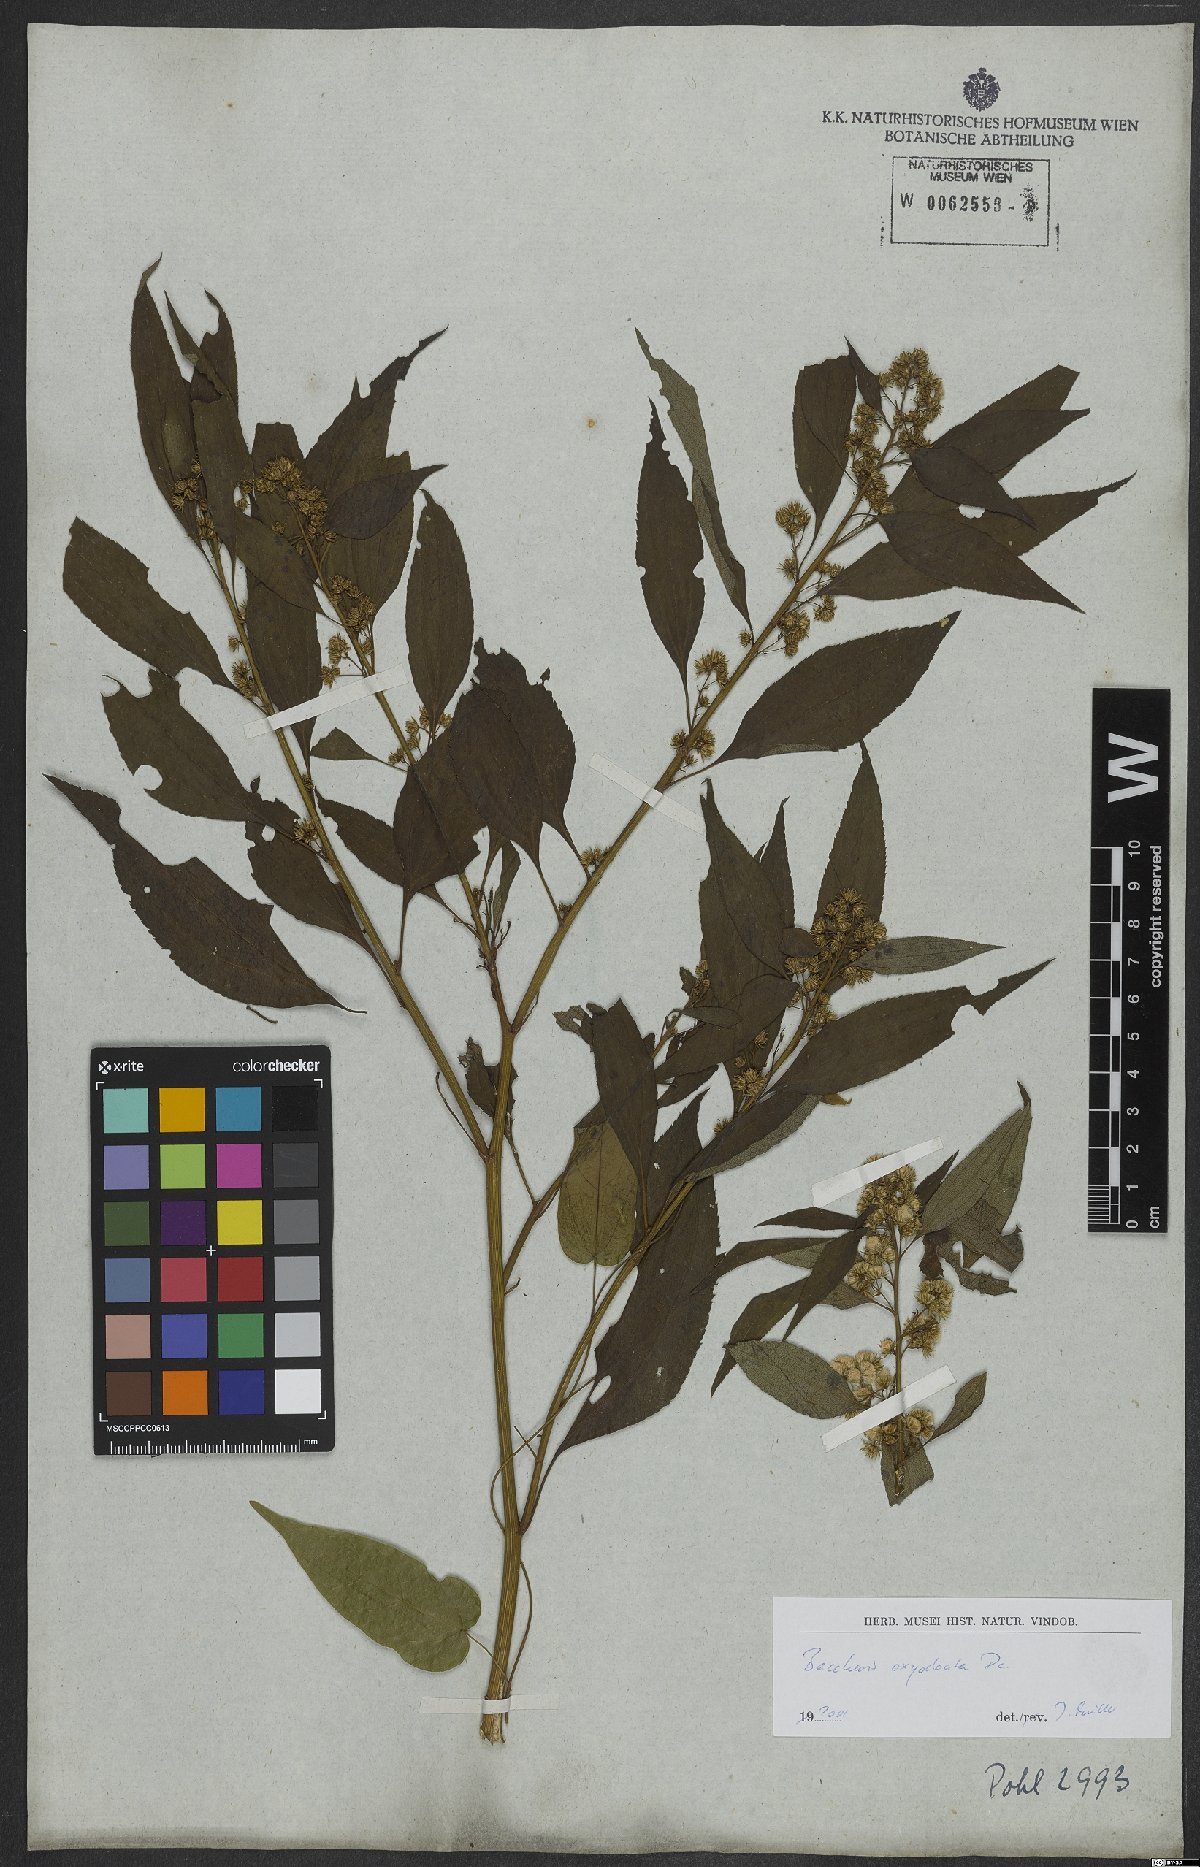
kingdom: Plantae
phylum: Tracheophyta
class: Magnoliopsida
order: Asterales
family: Asteraceae
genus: Baccharis
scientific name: Baccharis oxyodonta
